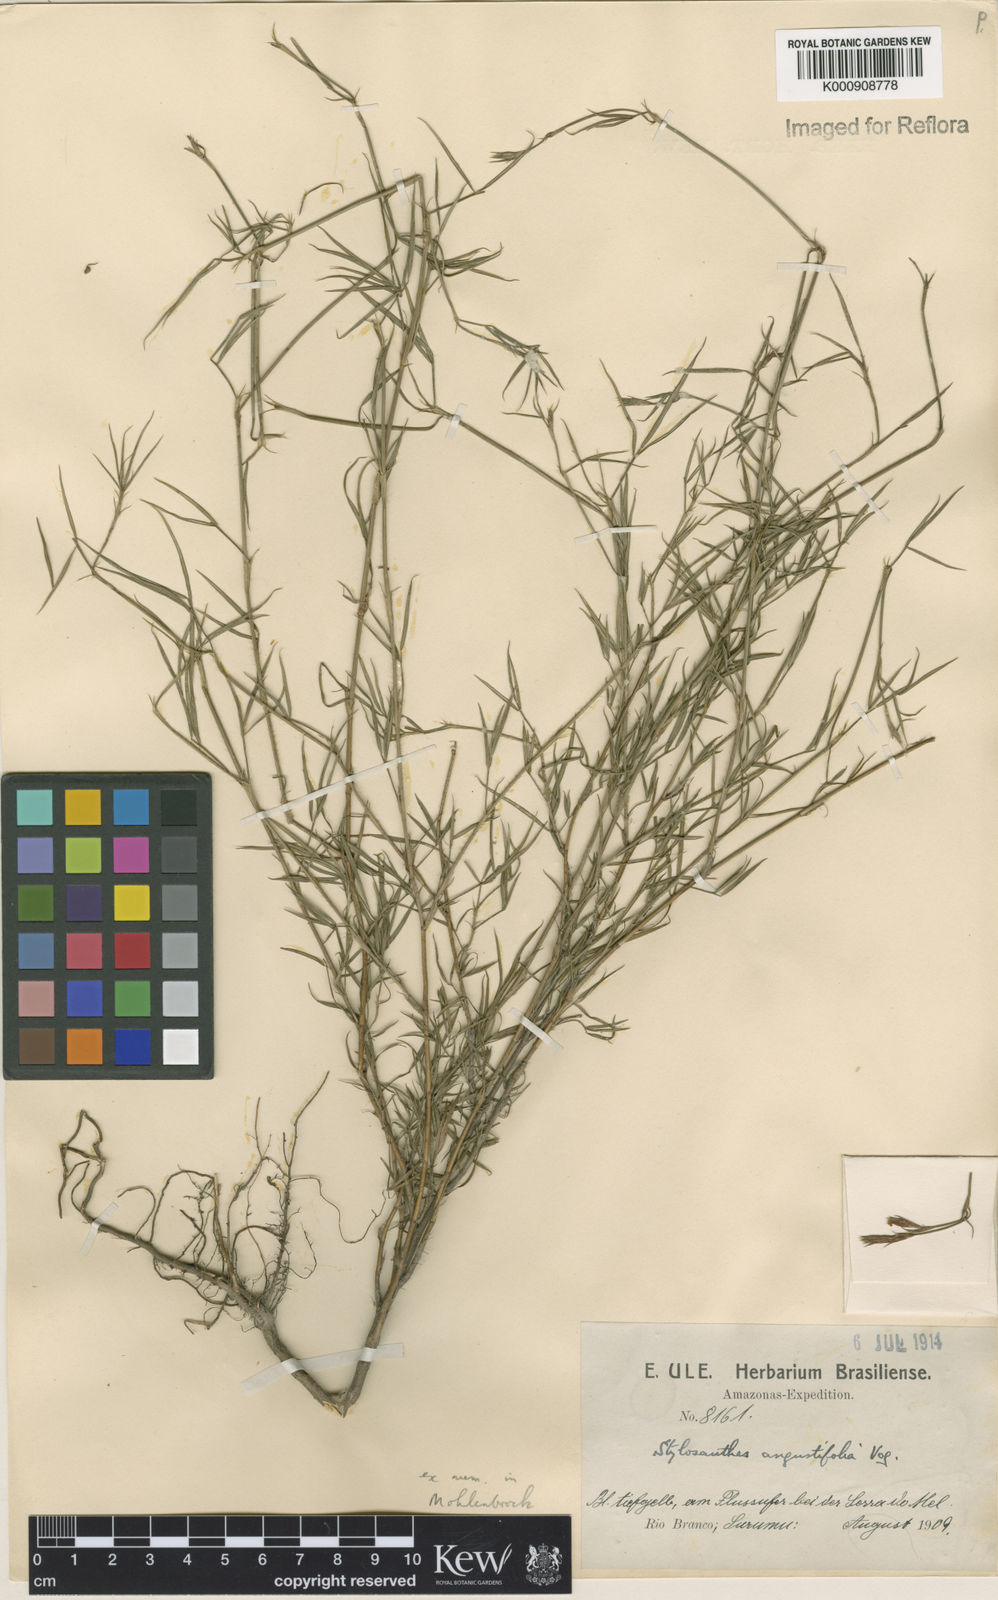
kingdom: Plantae
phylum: Tracheophyta
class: Magnoliopsida
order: Fabales
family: Fabaceae
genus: Stylosanthes
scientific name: Stylosanthes angustifolia
